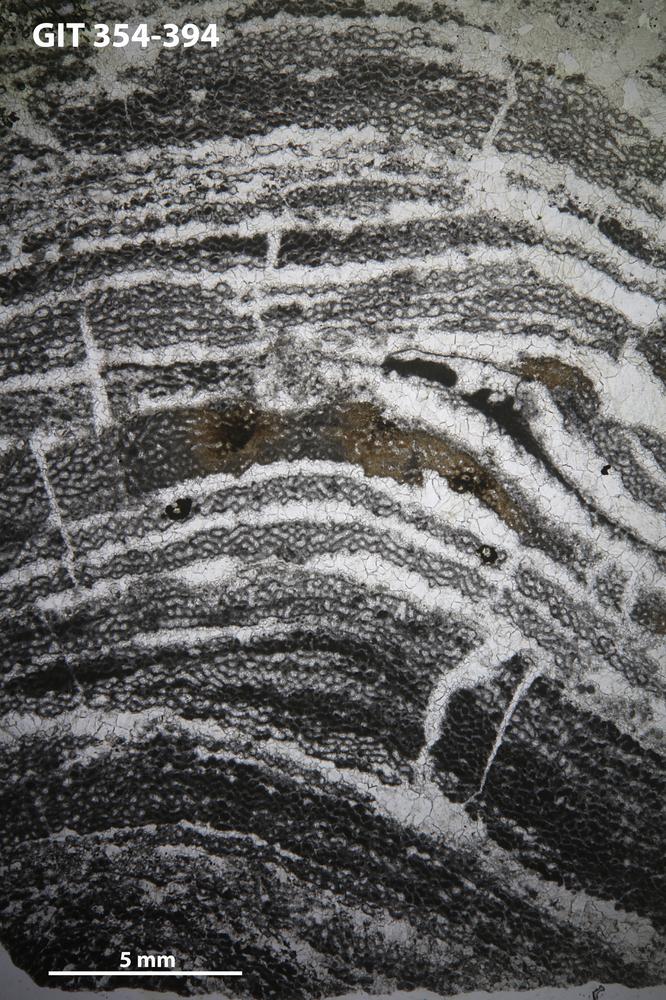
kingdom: Animalia
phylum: Porifera
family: Clathrodictyidae
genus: Clathrodictyon
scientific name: Clathrodictyon kudriavzevi
